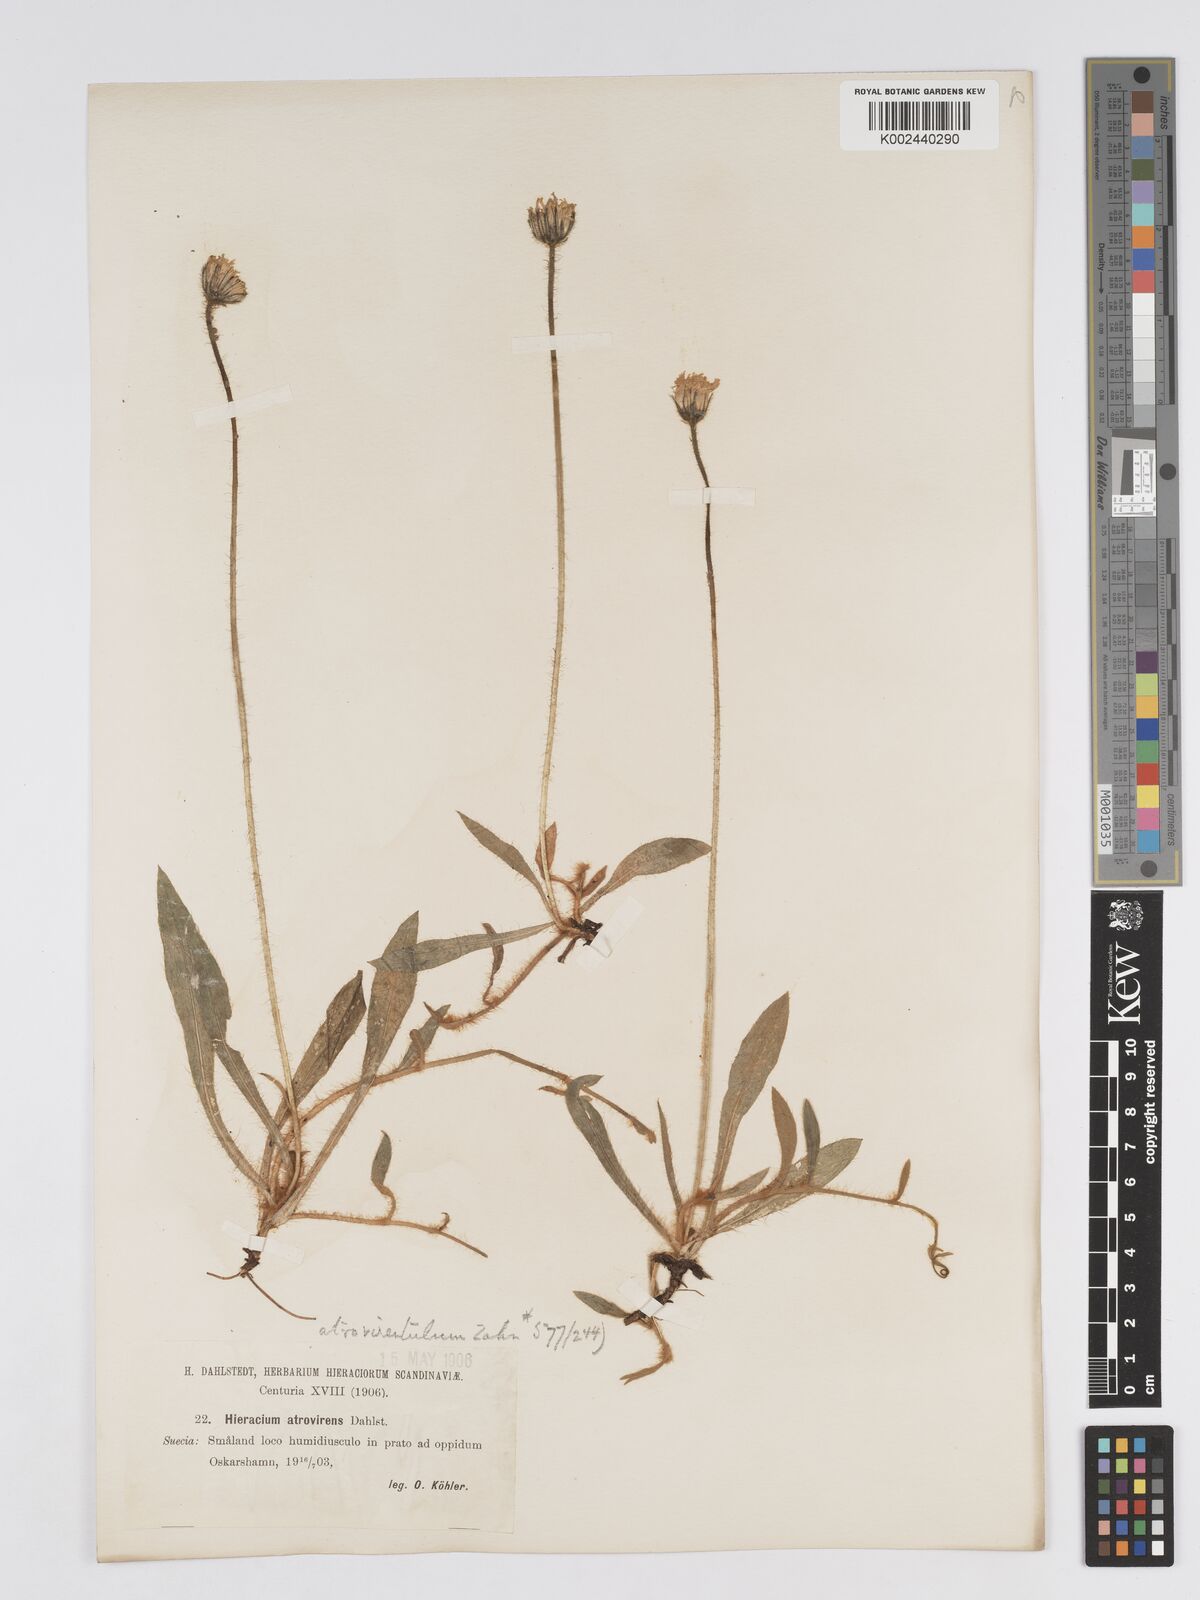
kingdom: Plantae
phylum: Tracheophyta
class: Magnoliopsida
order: Asterales
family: Asteraceae
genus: Pilosella
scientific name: Pilosella officinarum
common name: Mouse-ear hawkweed
